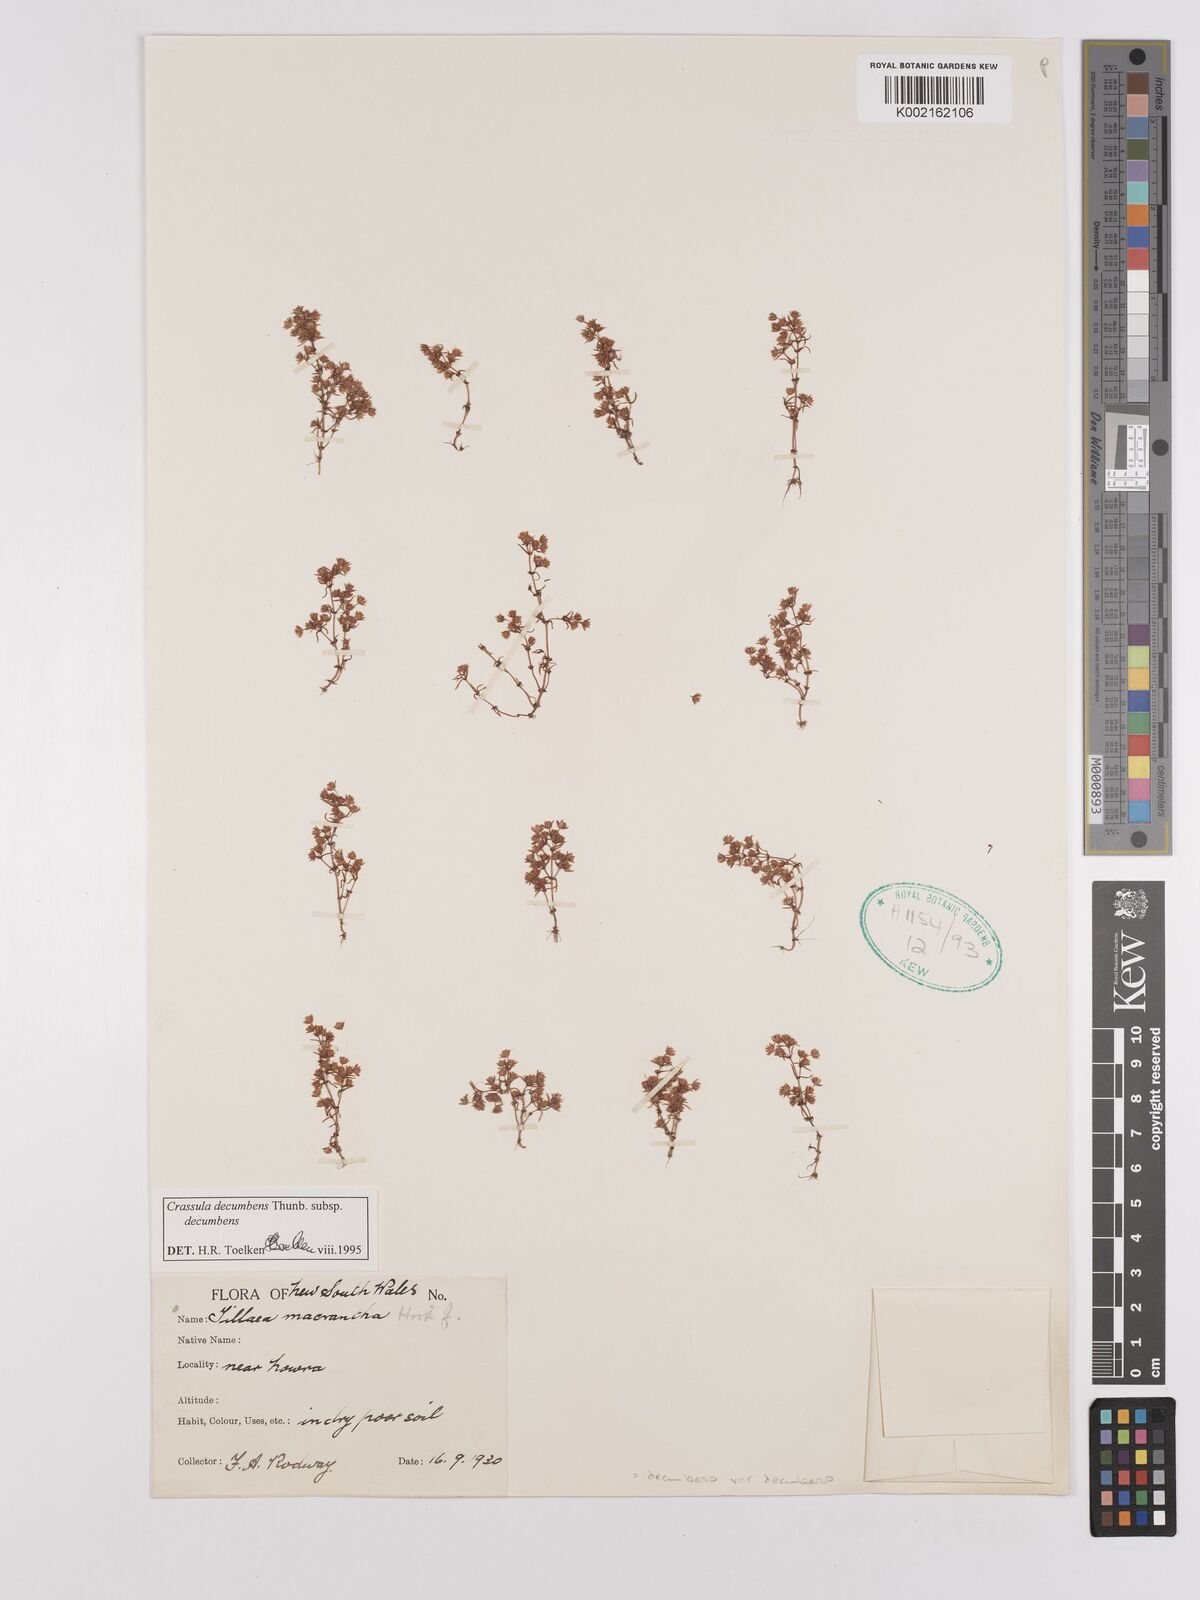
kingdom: Plantae
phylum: Tracheophyta
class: Magnoliopsida
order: Saxifragales
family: Crassulaceae
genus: Crassula
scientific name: Crassula decumbens
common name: Scilly pigmyweed
